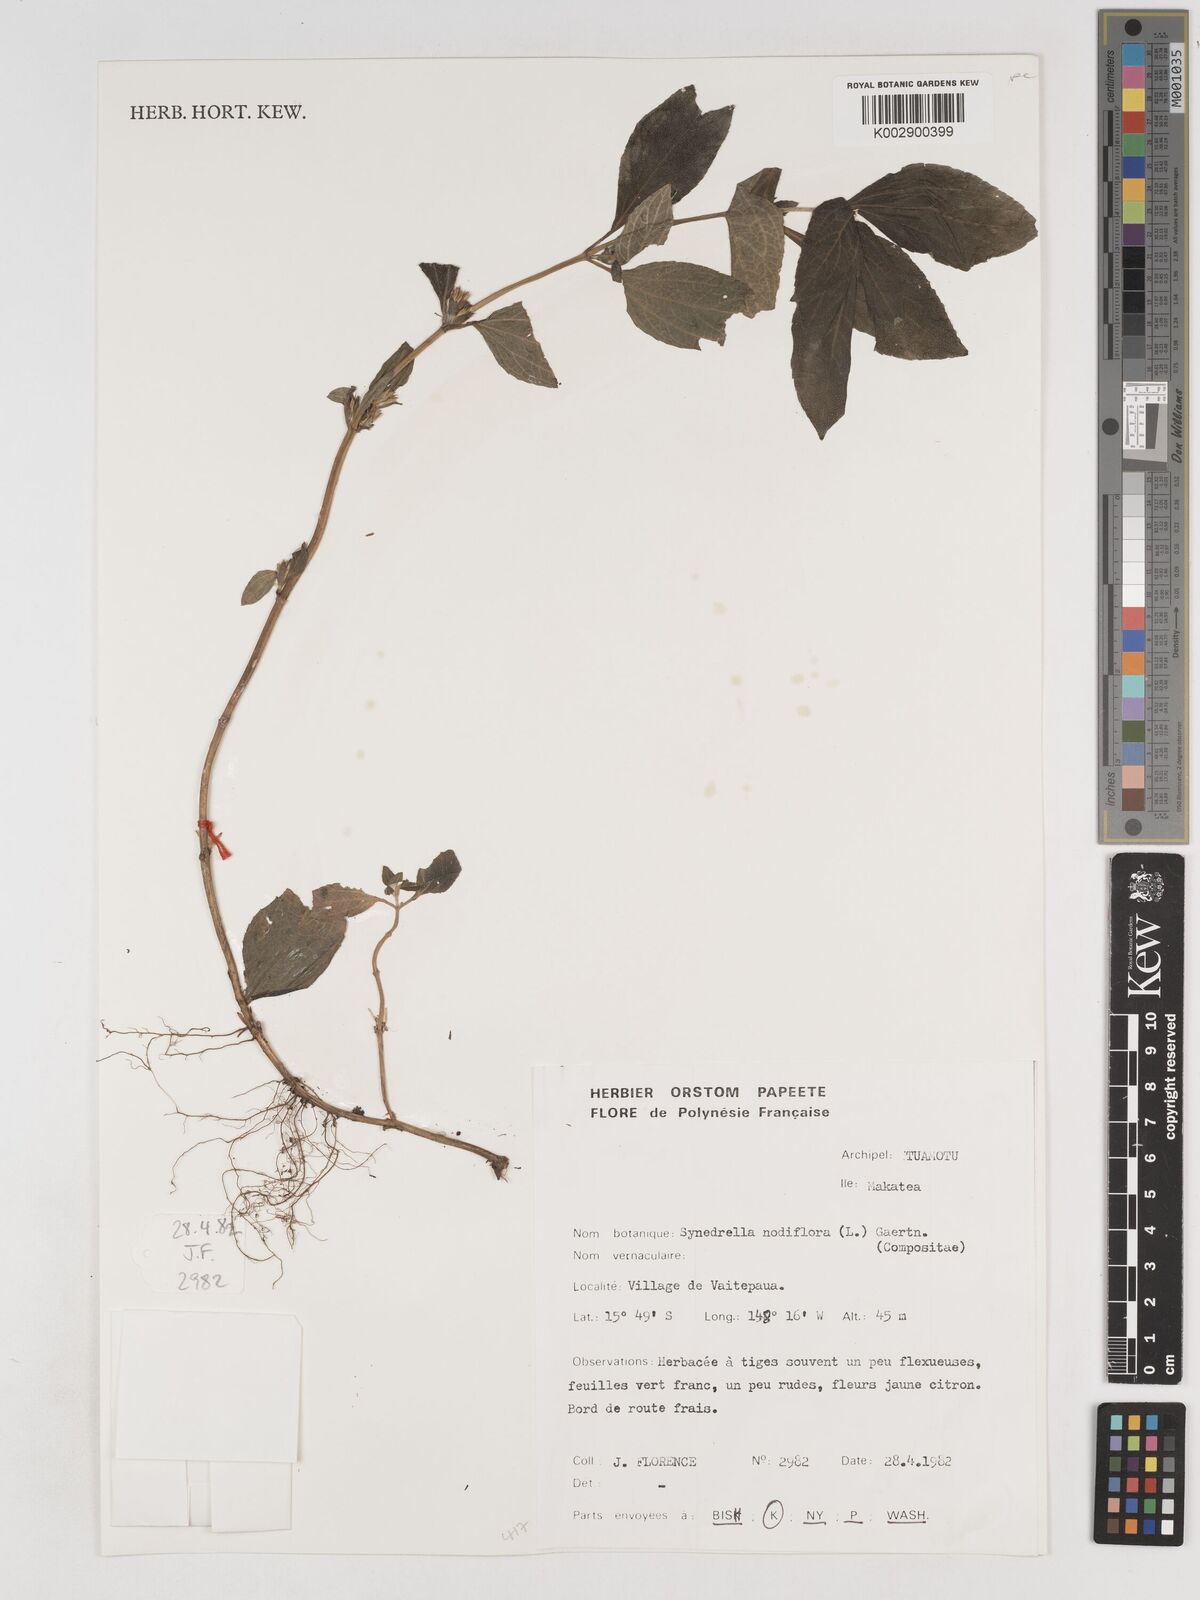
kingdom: Plantae
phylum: Tracheophyta
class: Magnoliopsida
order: Asterales
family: Asteraceae
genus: Synedrella
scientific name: Synedrella nodiflora
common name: Nodeweed
